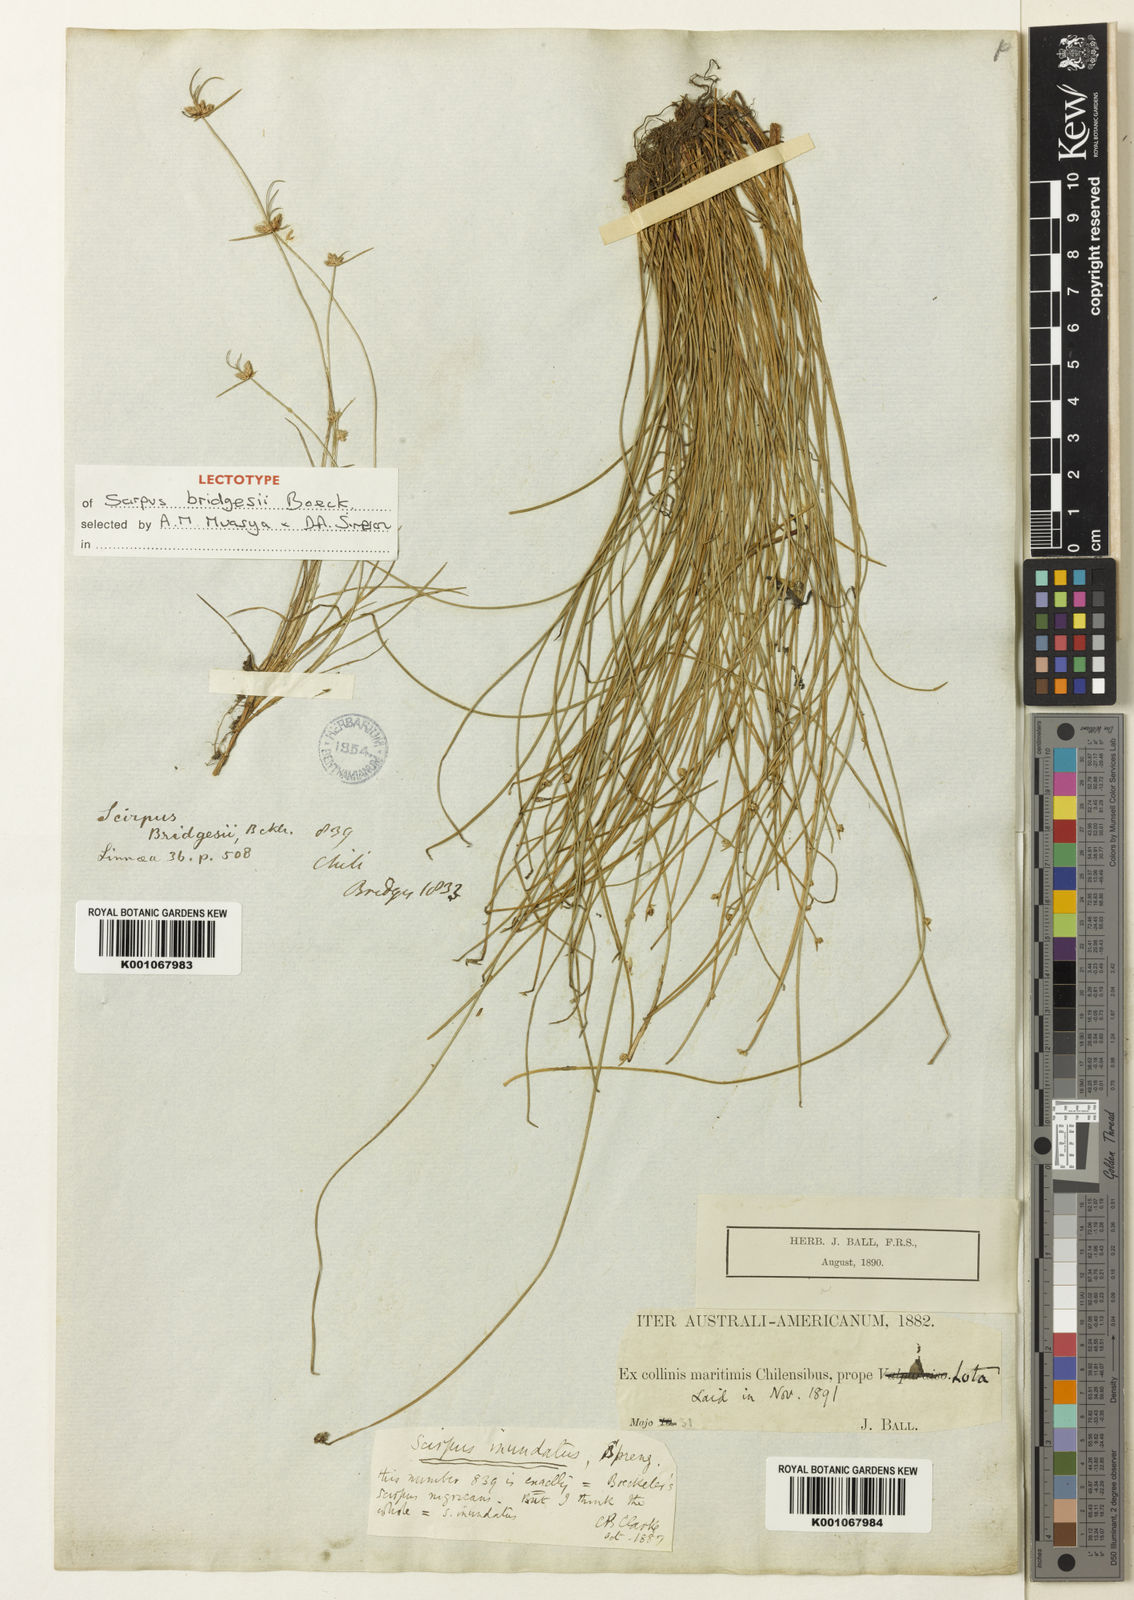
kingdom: Plantae
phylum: Tracheophyta
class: Liliopsida
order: Poales
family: Cyperaceae
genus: Isolepis
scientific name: Isolepis inundata
